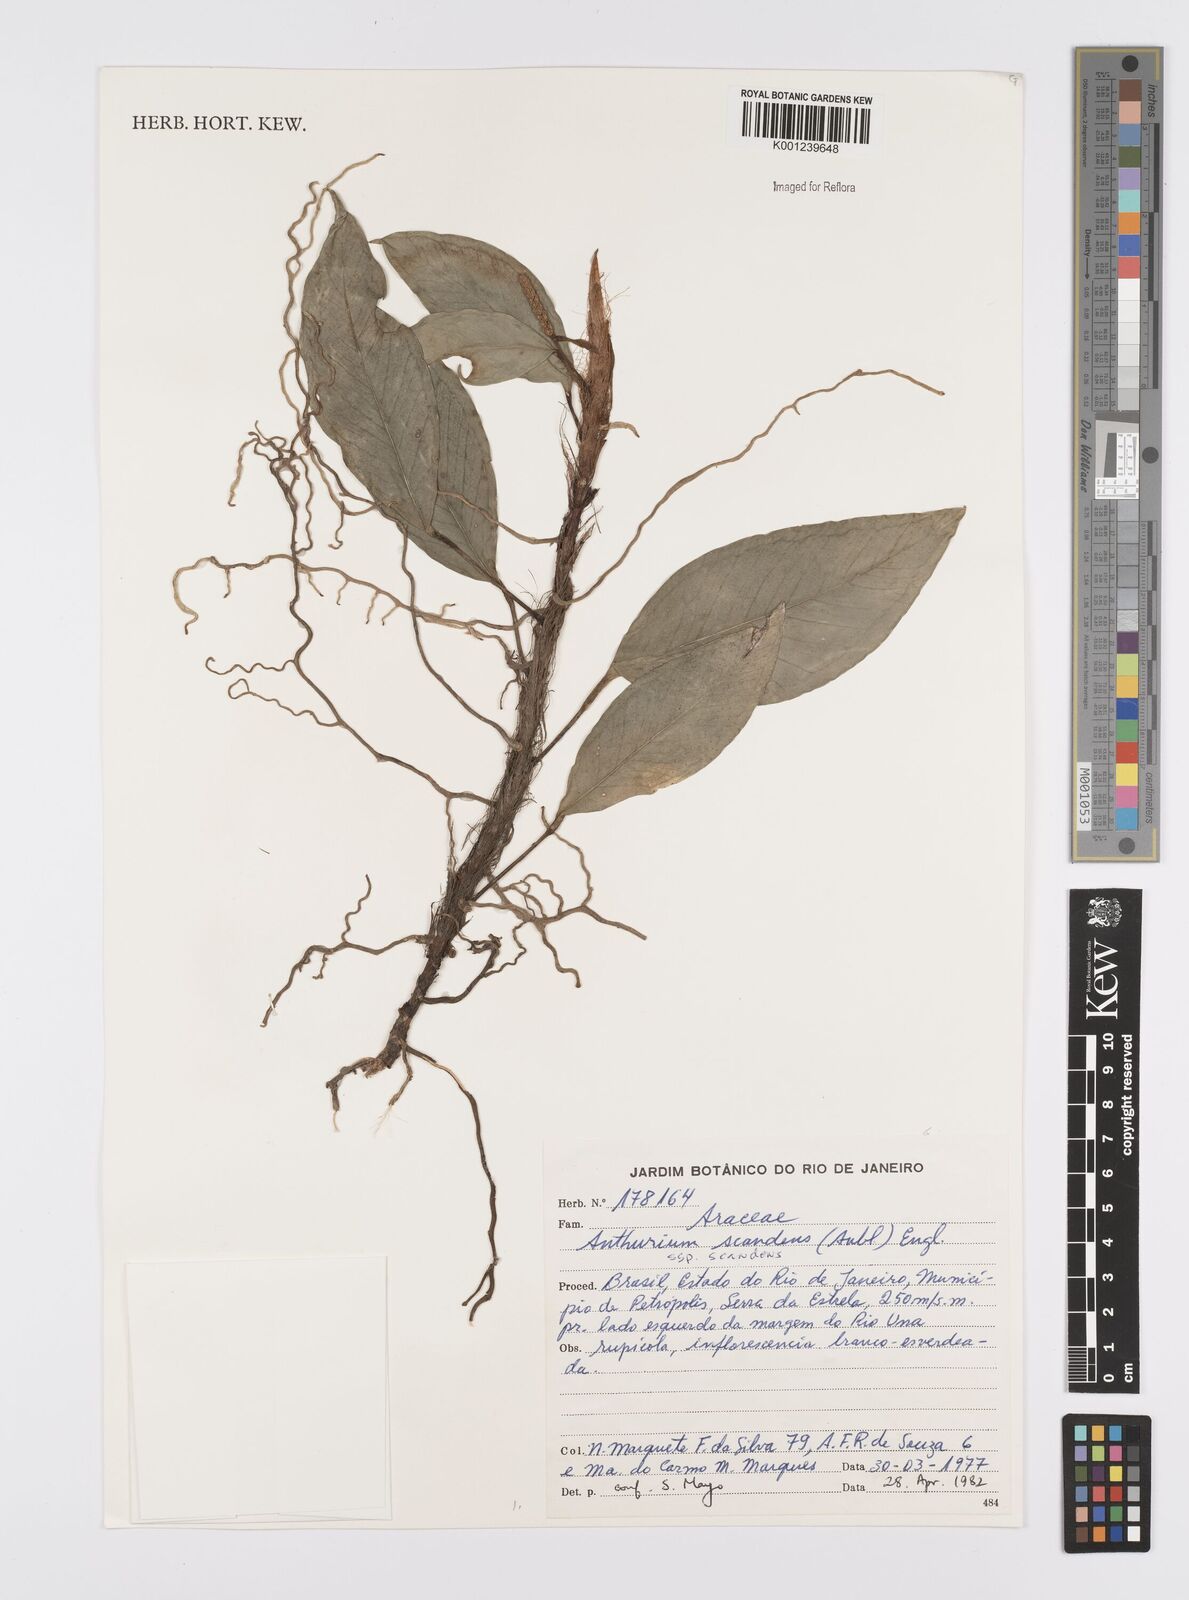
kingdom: Plantae
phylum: Tracheophyta
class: Liliopsida
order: Alismatales
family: Araceae
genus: Anthurium
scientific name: Anthurium scandens
